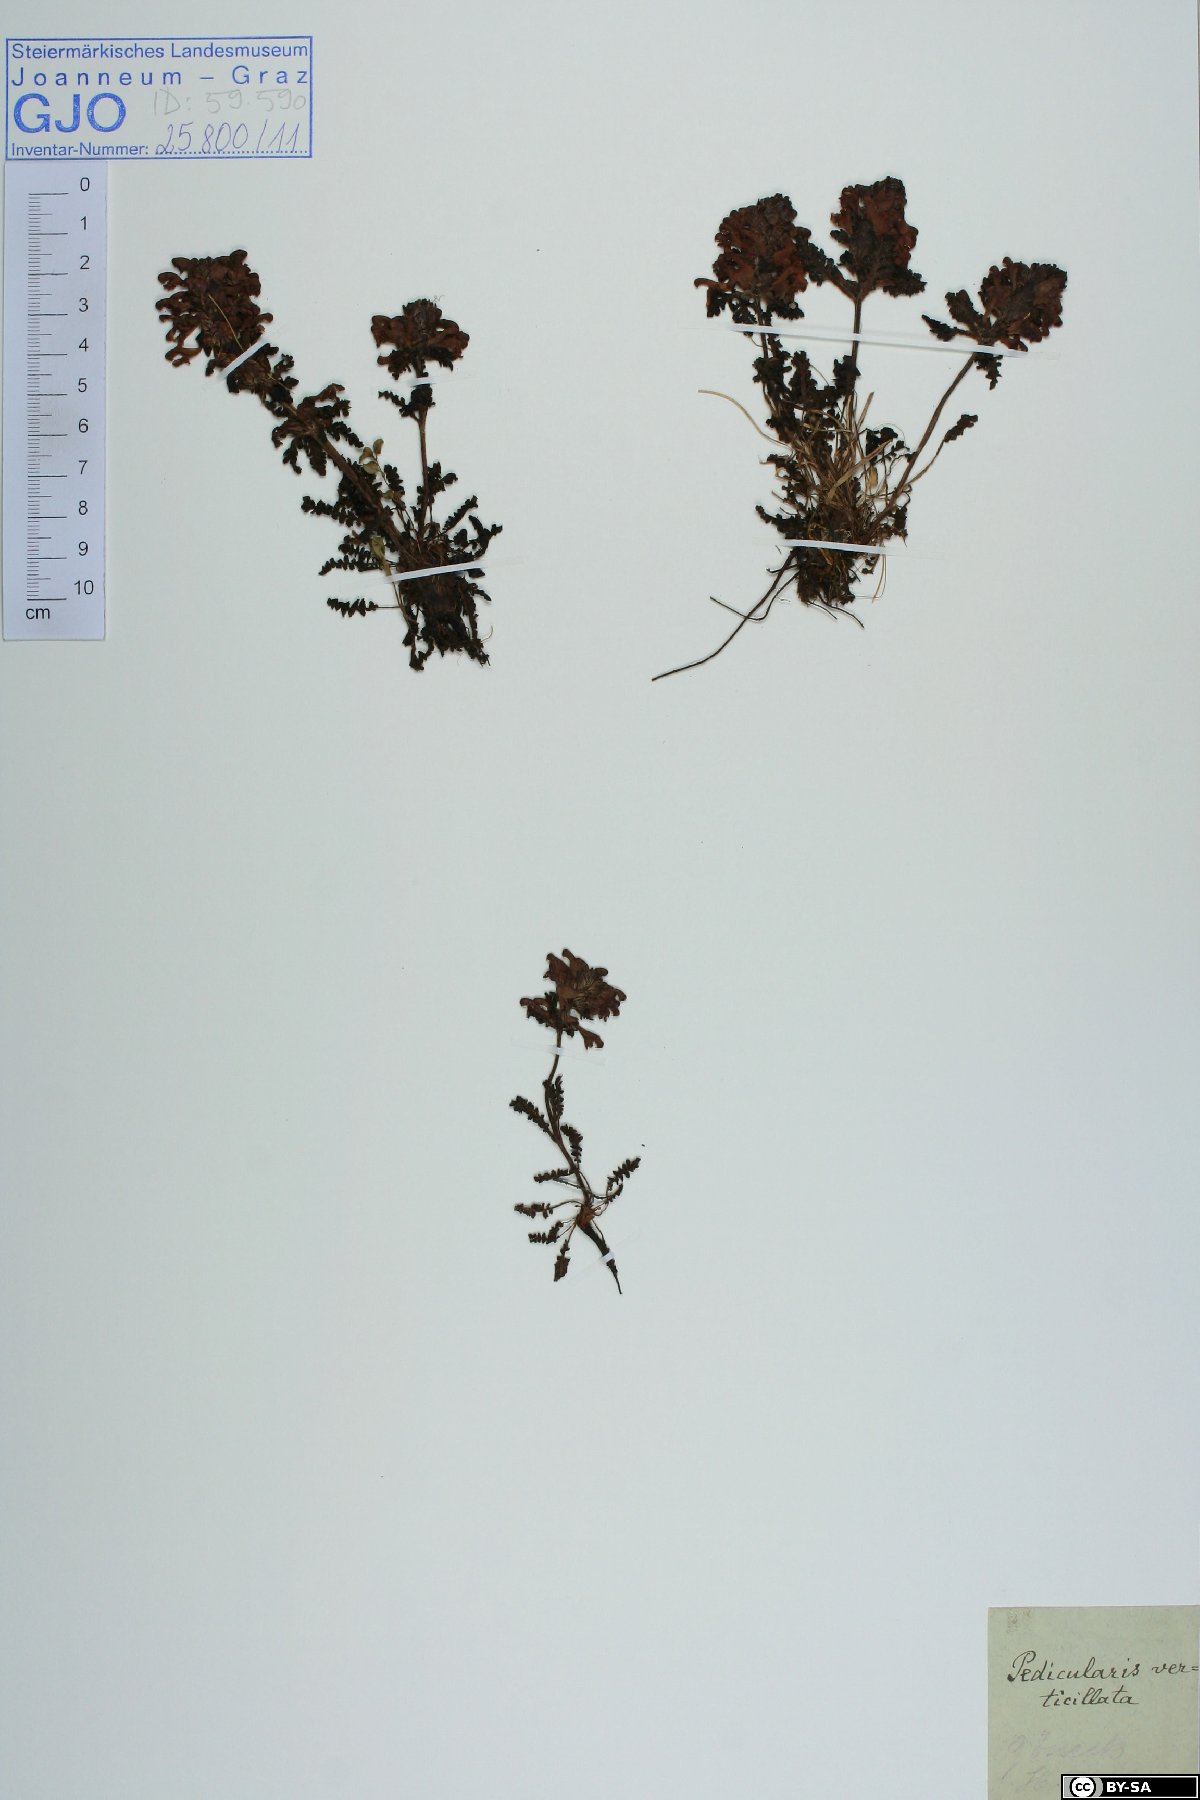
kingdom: Plantae
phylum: Tracheophyta
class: Magnoliopsida
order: Lamiales
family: Orobanchaceae
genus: Pedicularis
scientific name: Pedicularis verticillata
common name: Whorled lousewort
